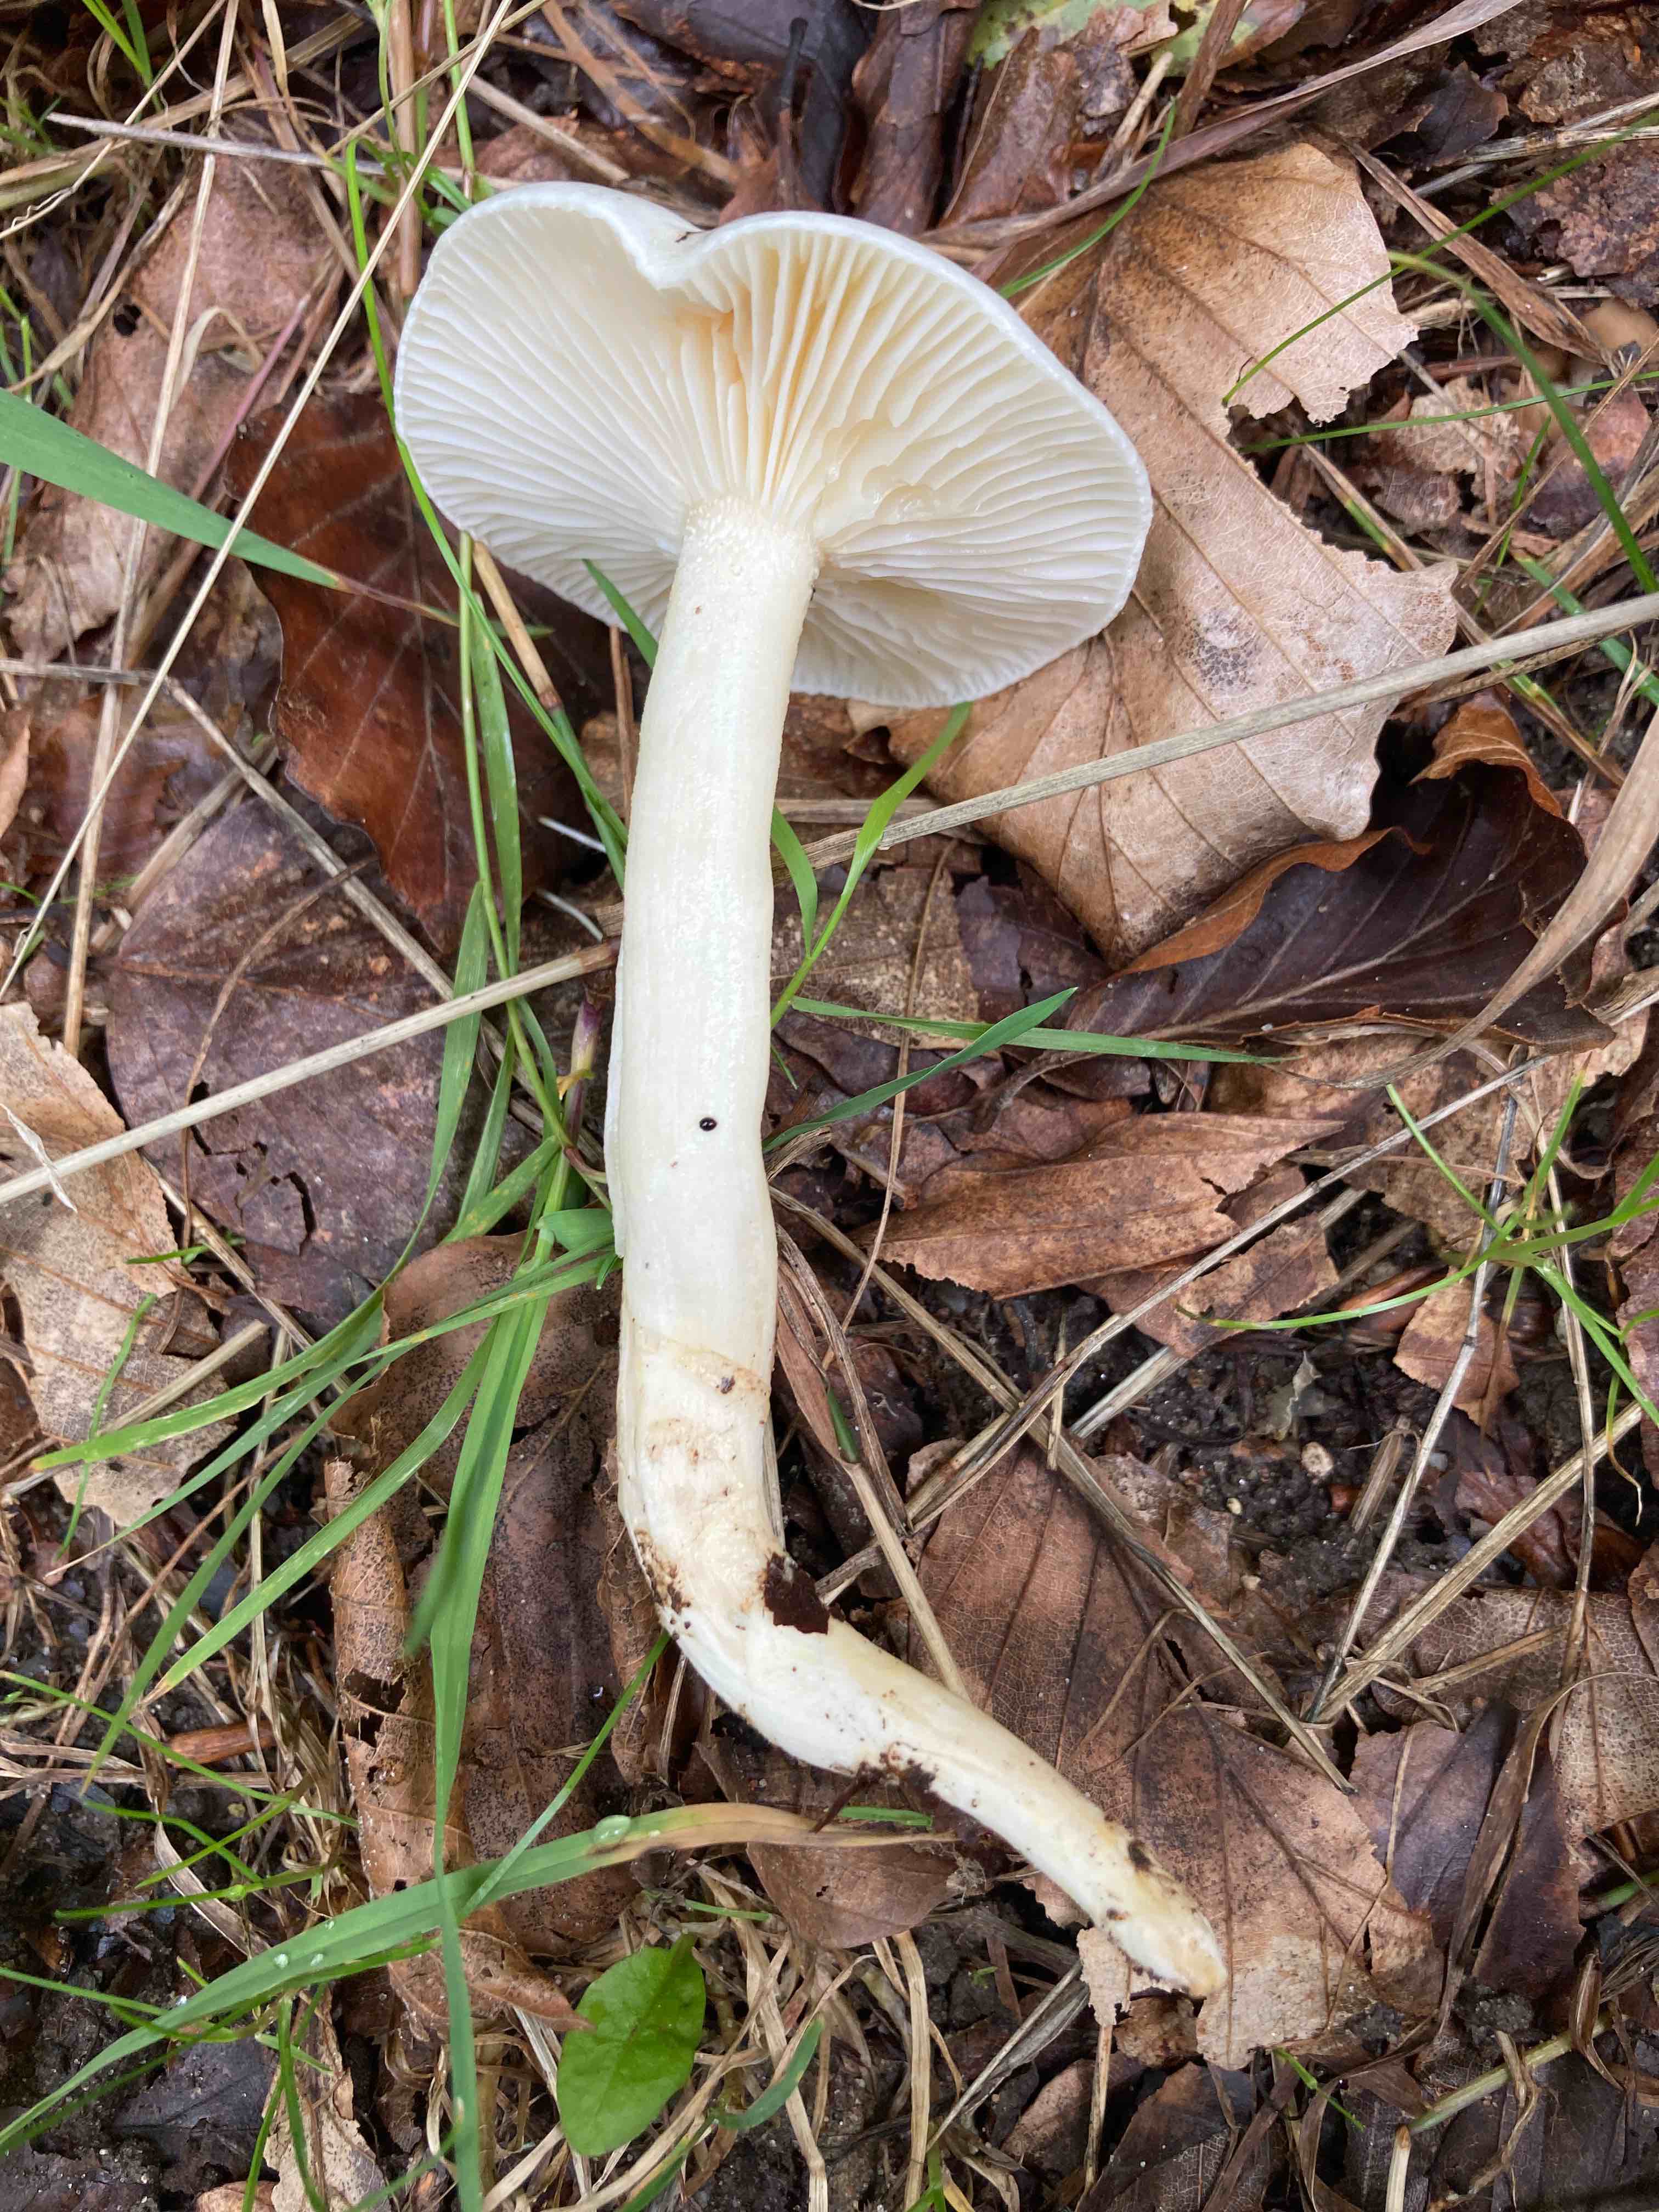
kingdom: Fungi
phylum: Basidiomycota
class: Agaricomycetes
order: Agaricales
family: Hygrophoraceae
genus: Hygrophorus
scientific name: Hygrophorus eburneus
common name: elfenbens-sneglehat
